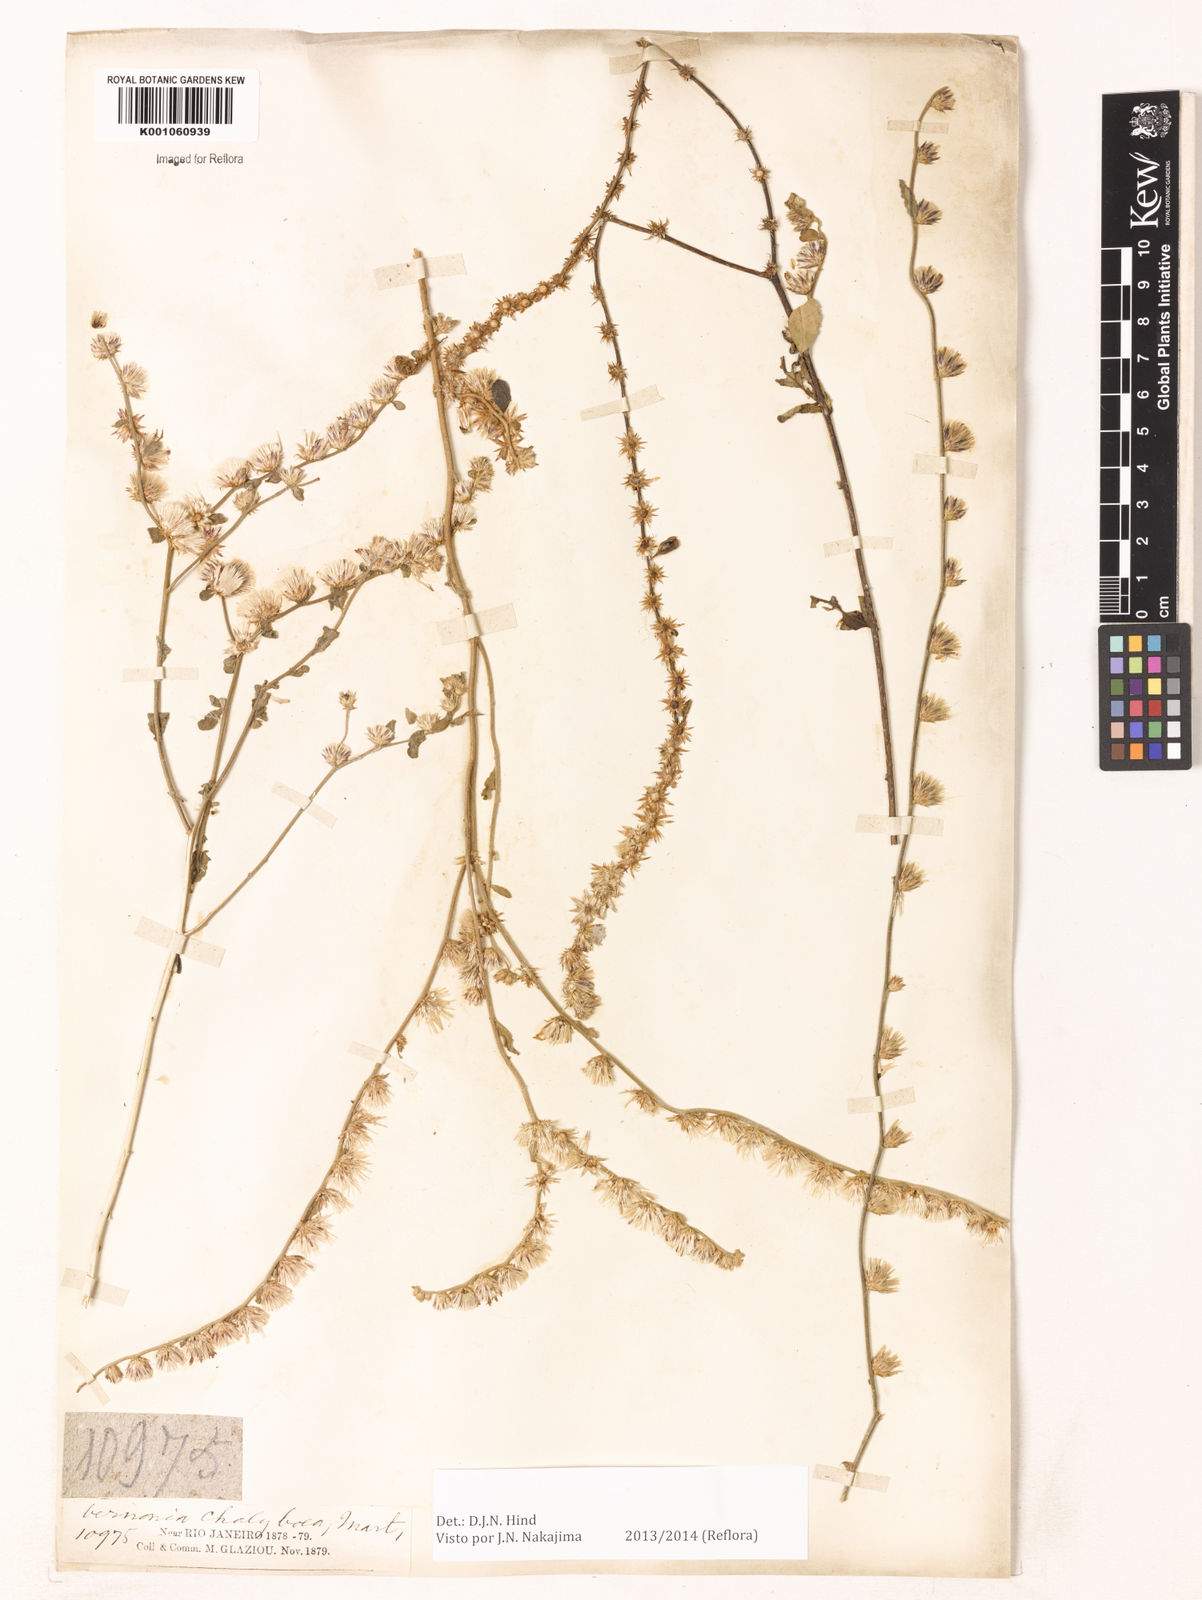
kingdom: Plantae
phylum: Tracheophyta
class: Magnoliopsida
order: Asterales
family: Asteraceae
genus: Lepidaploa
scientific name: Lepidaploa chalybaea
